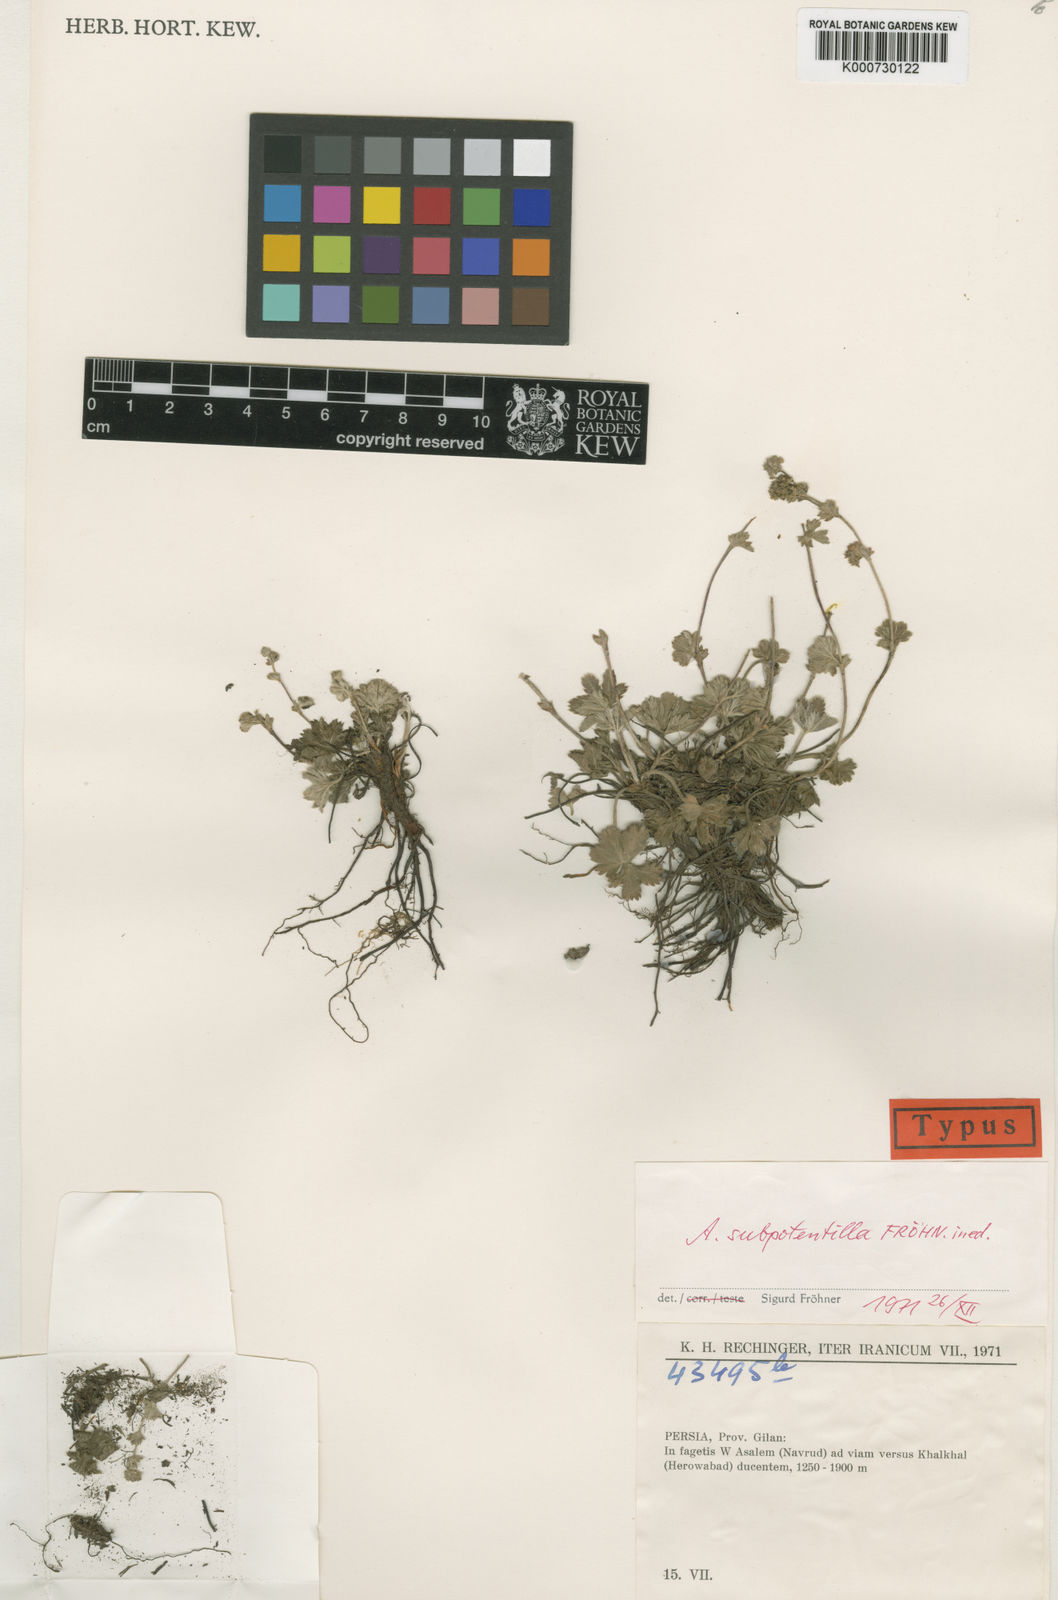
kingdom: Plantae
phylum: Tracheophyta
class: Magnoliopsida
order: Rosales
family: Rosaceae
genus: Alchemilla
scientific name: Alchemilla
